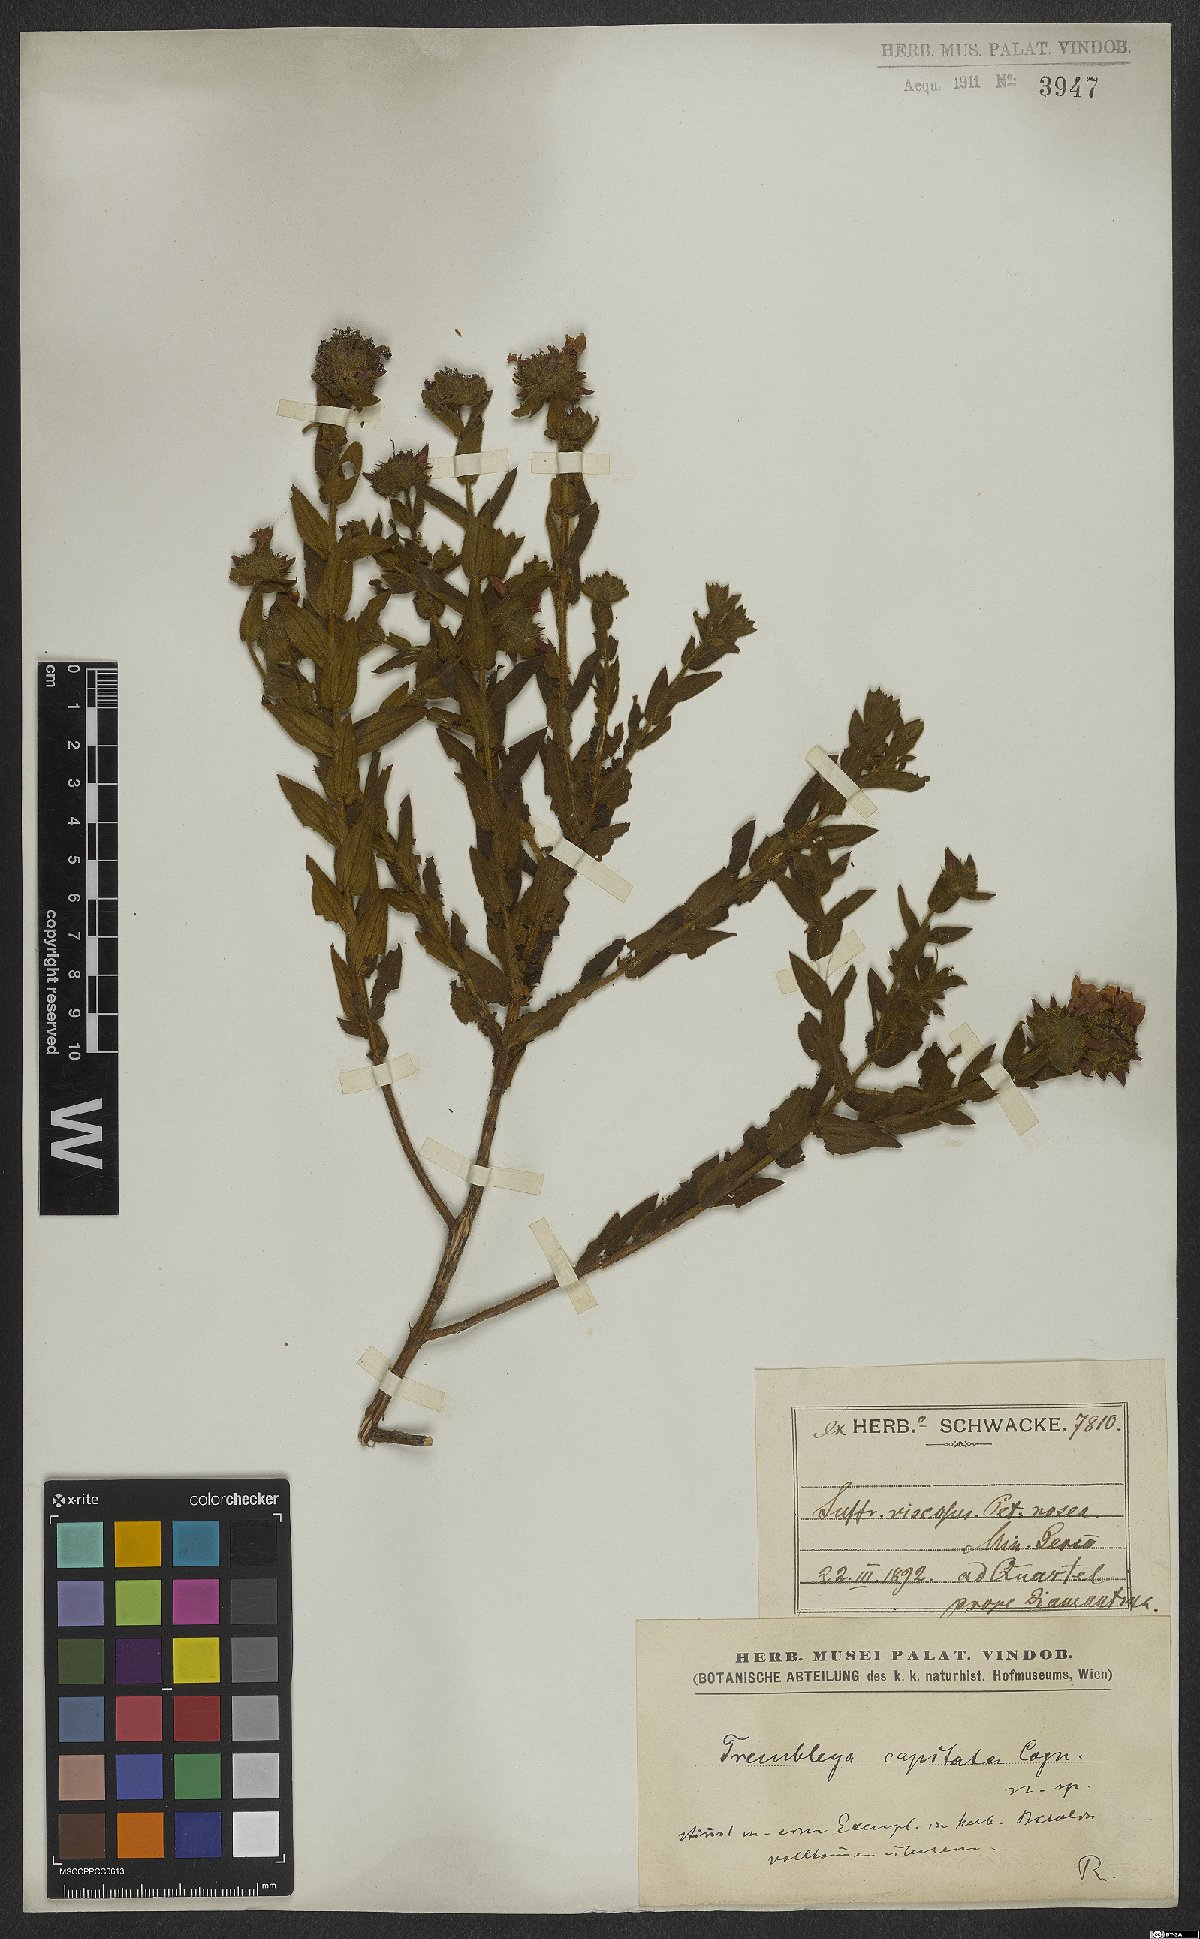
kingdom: Plantae
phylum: Tracheophyta
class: Magnoliopsida
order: Myrtales
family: Melastomataceae
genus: Microlicia
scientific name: Microlicia Trembleya capitata
